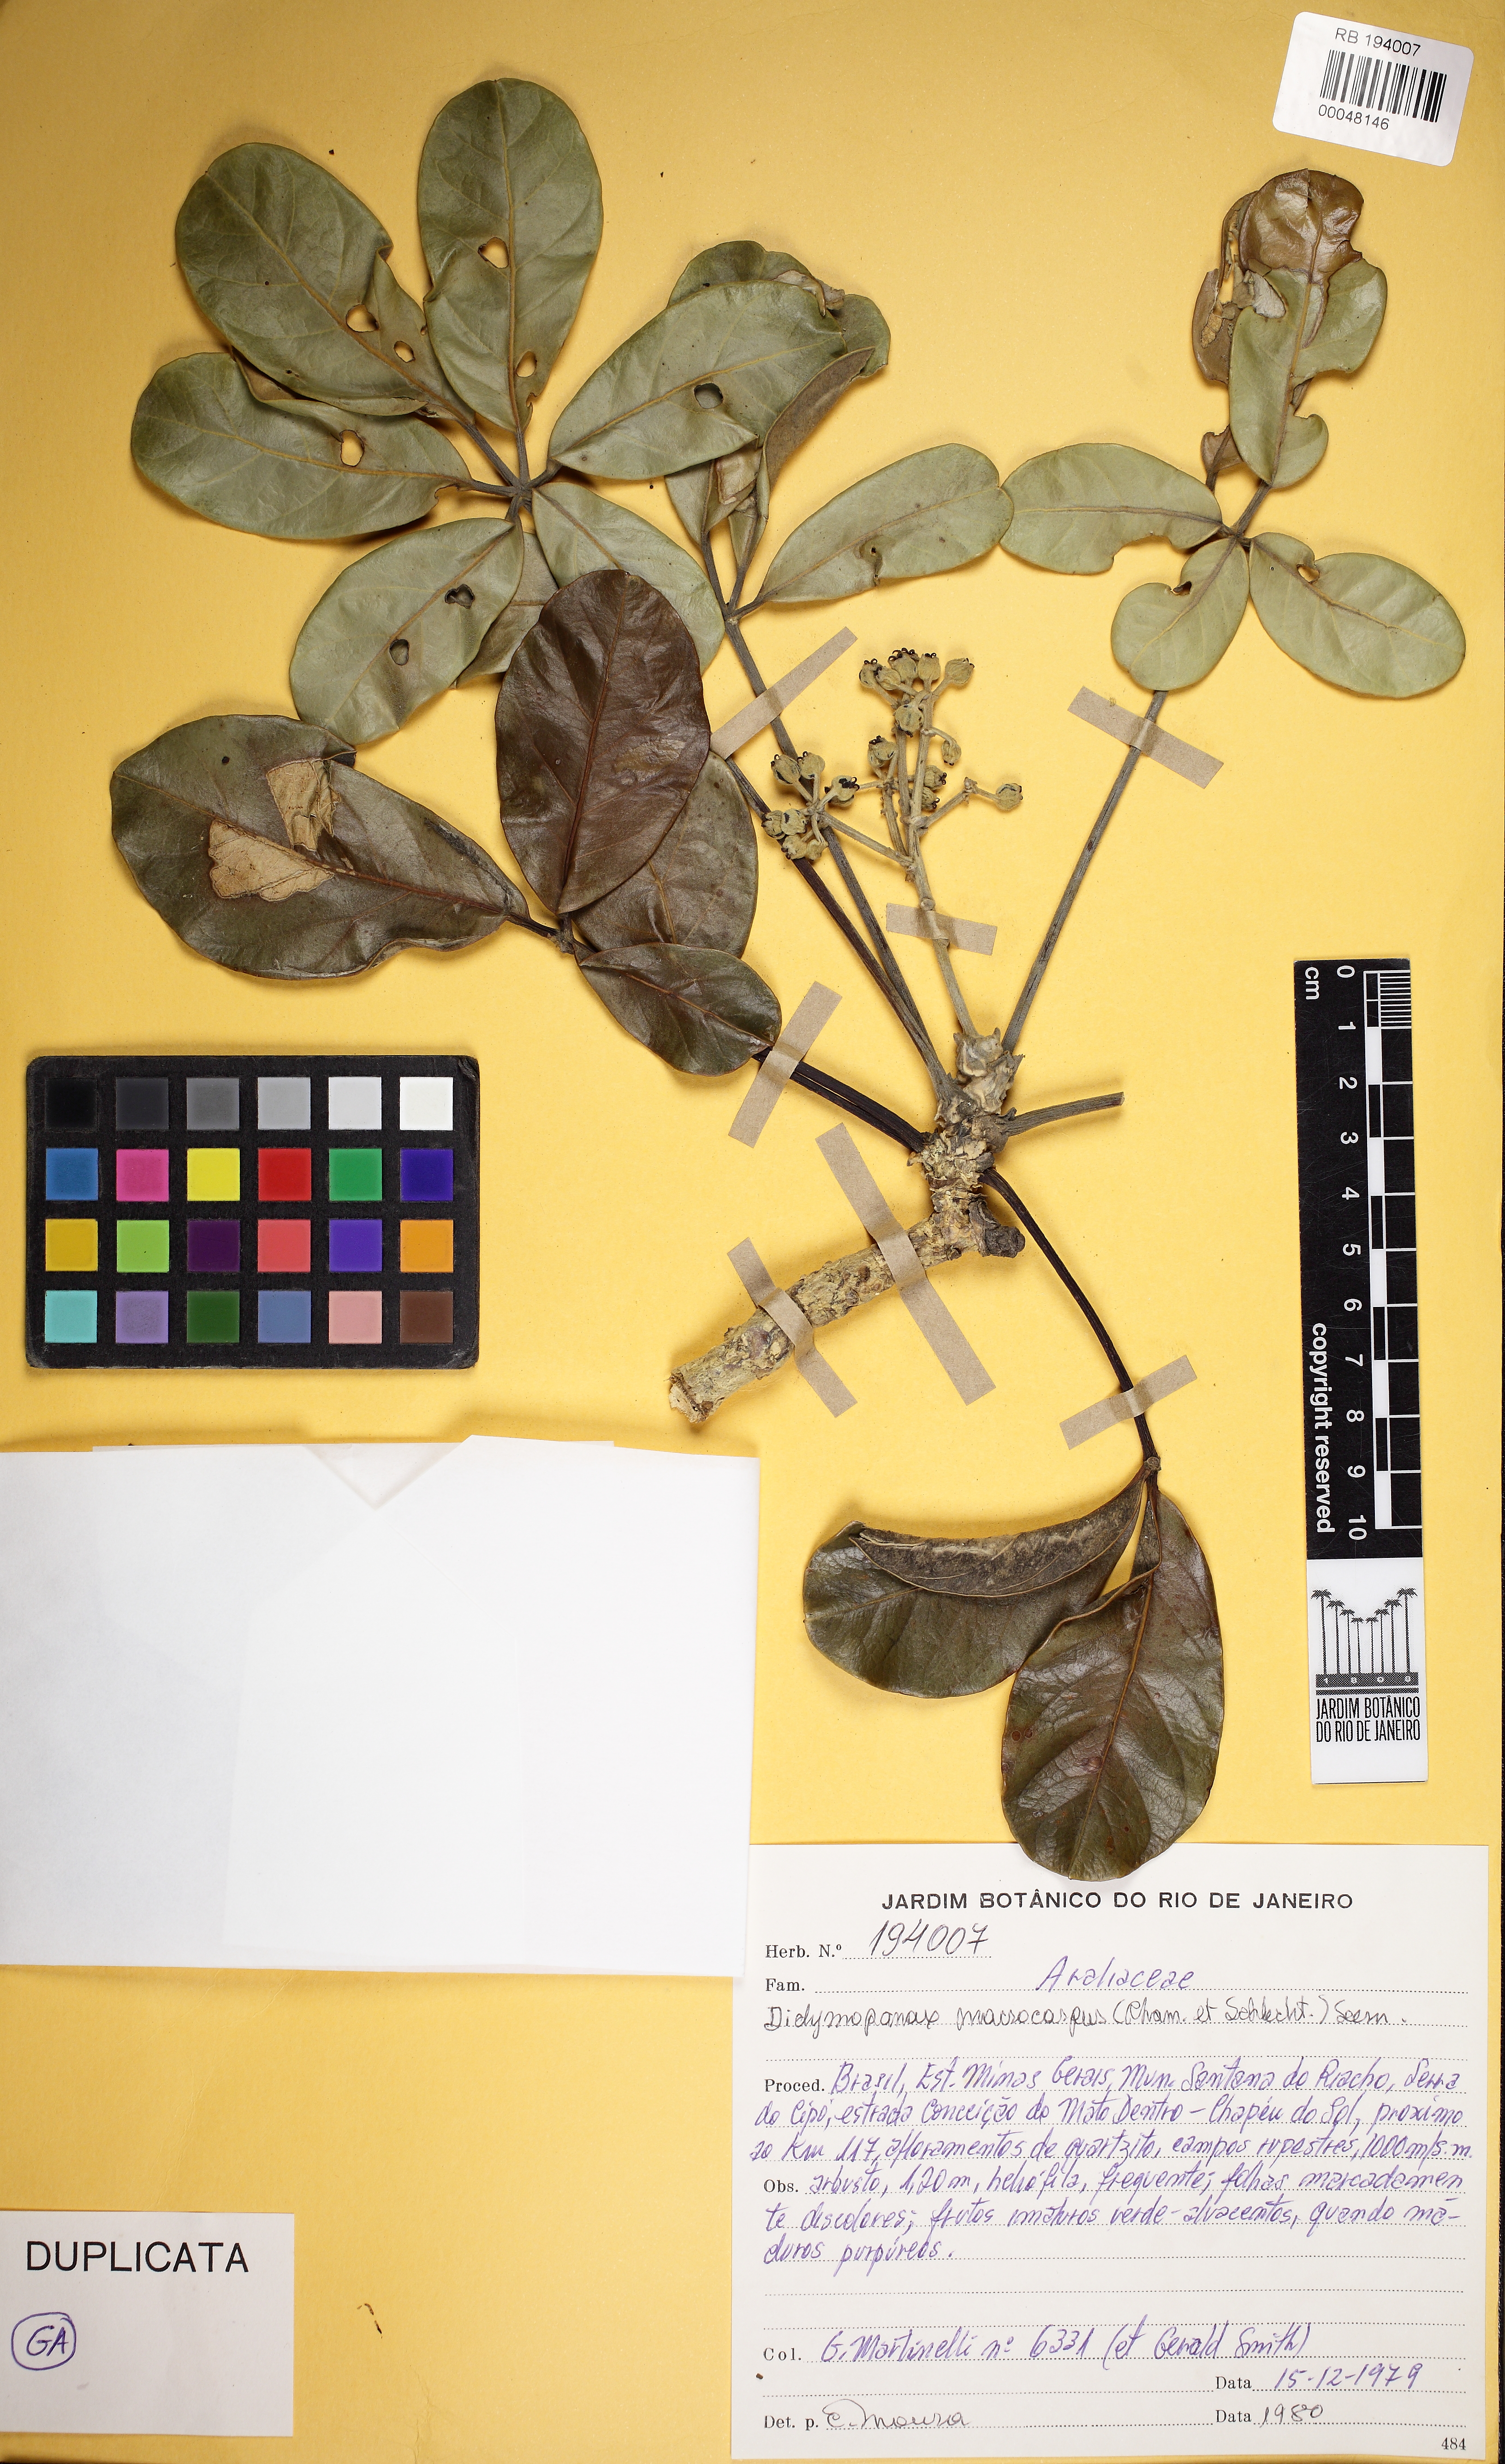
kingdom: Plantae
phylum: Tracheophyta
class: Magnoliopsida
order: Apiales
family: Araliaceae
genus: Didymopanax
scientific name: Didymopanax macrocarpus
